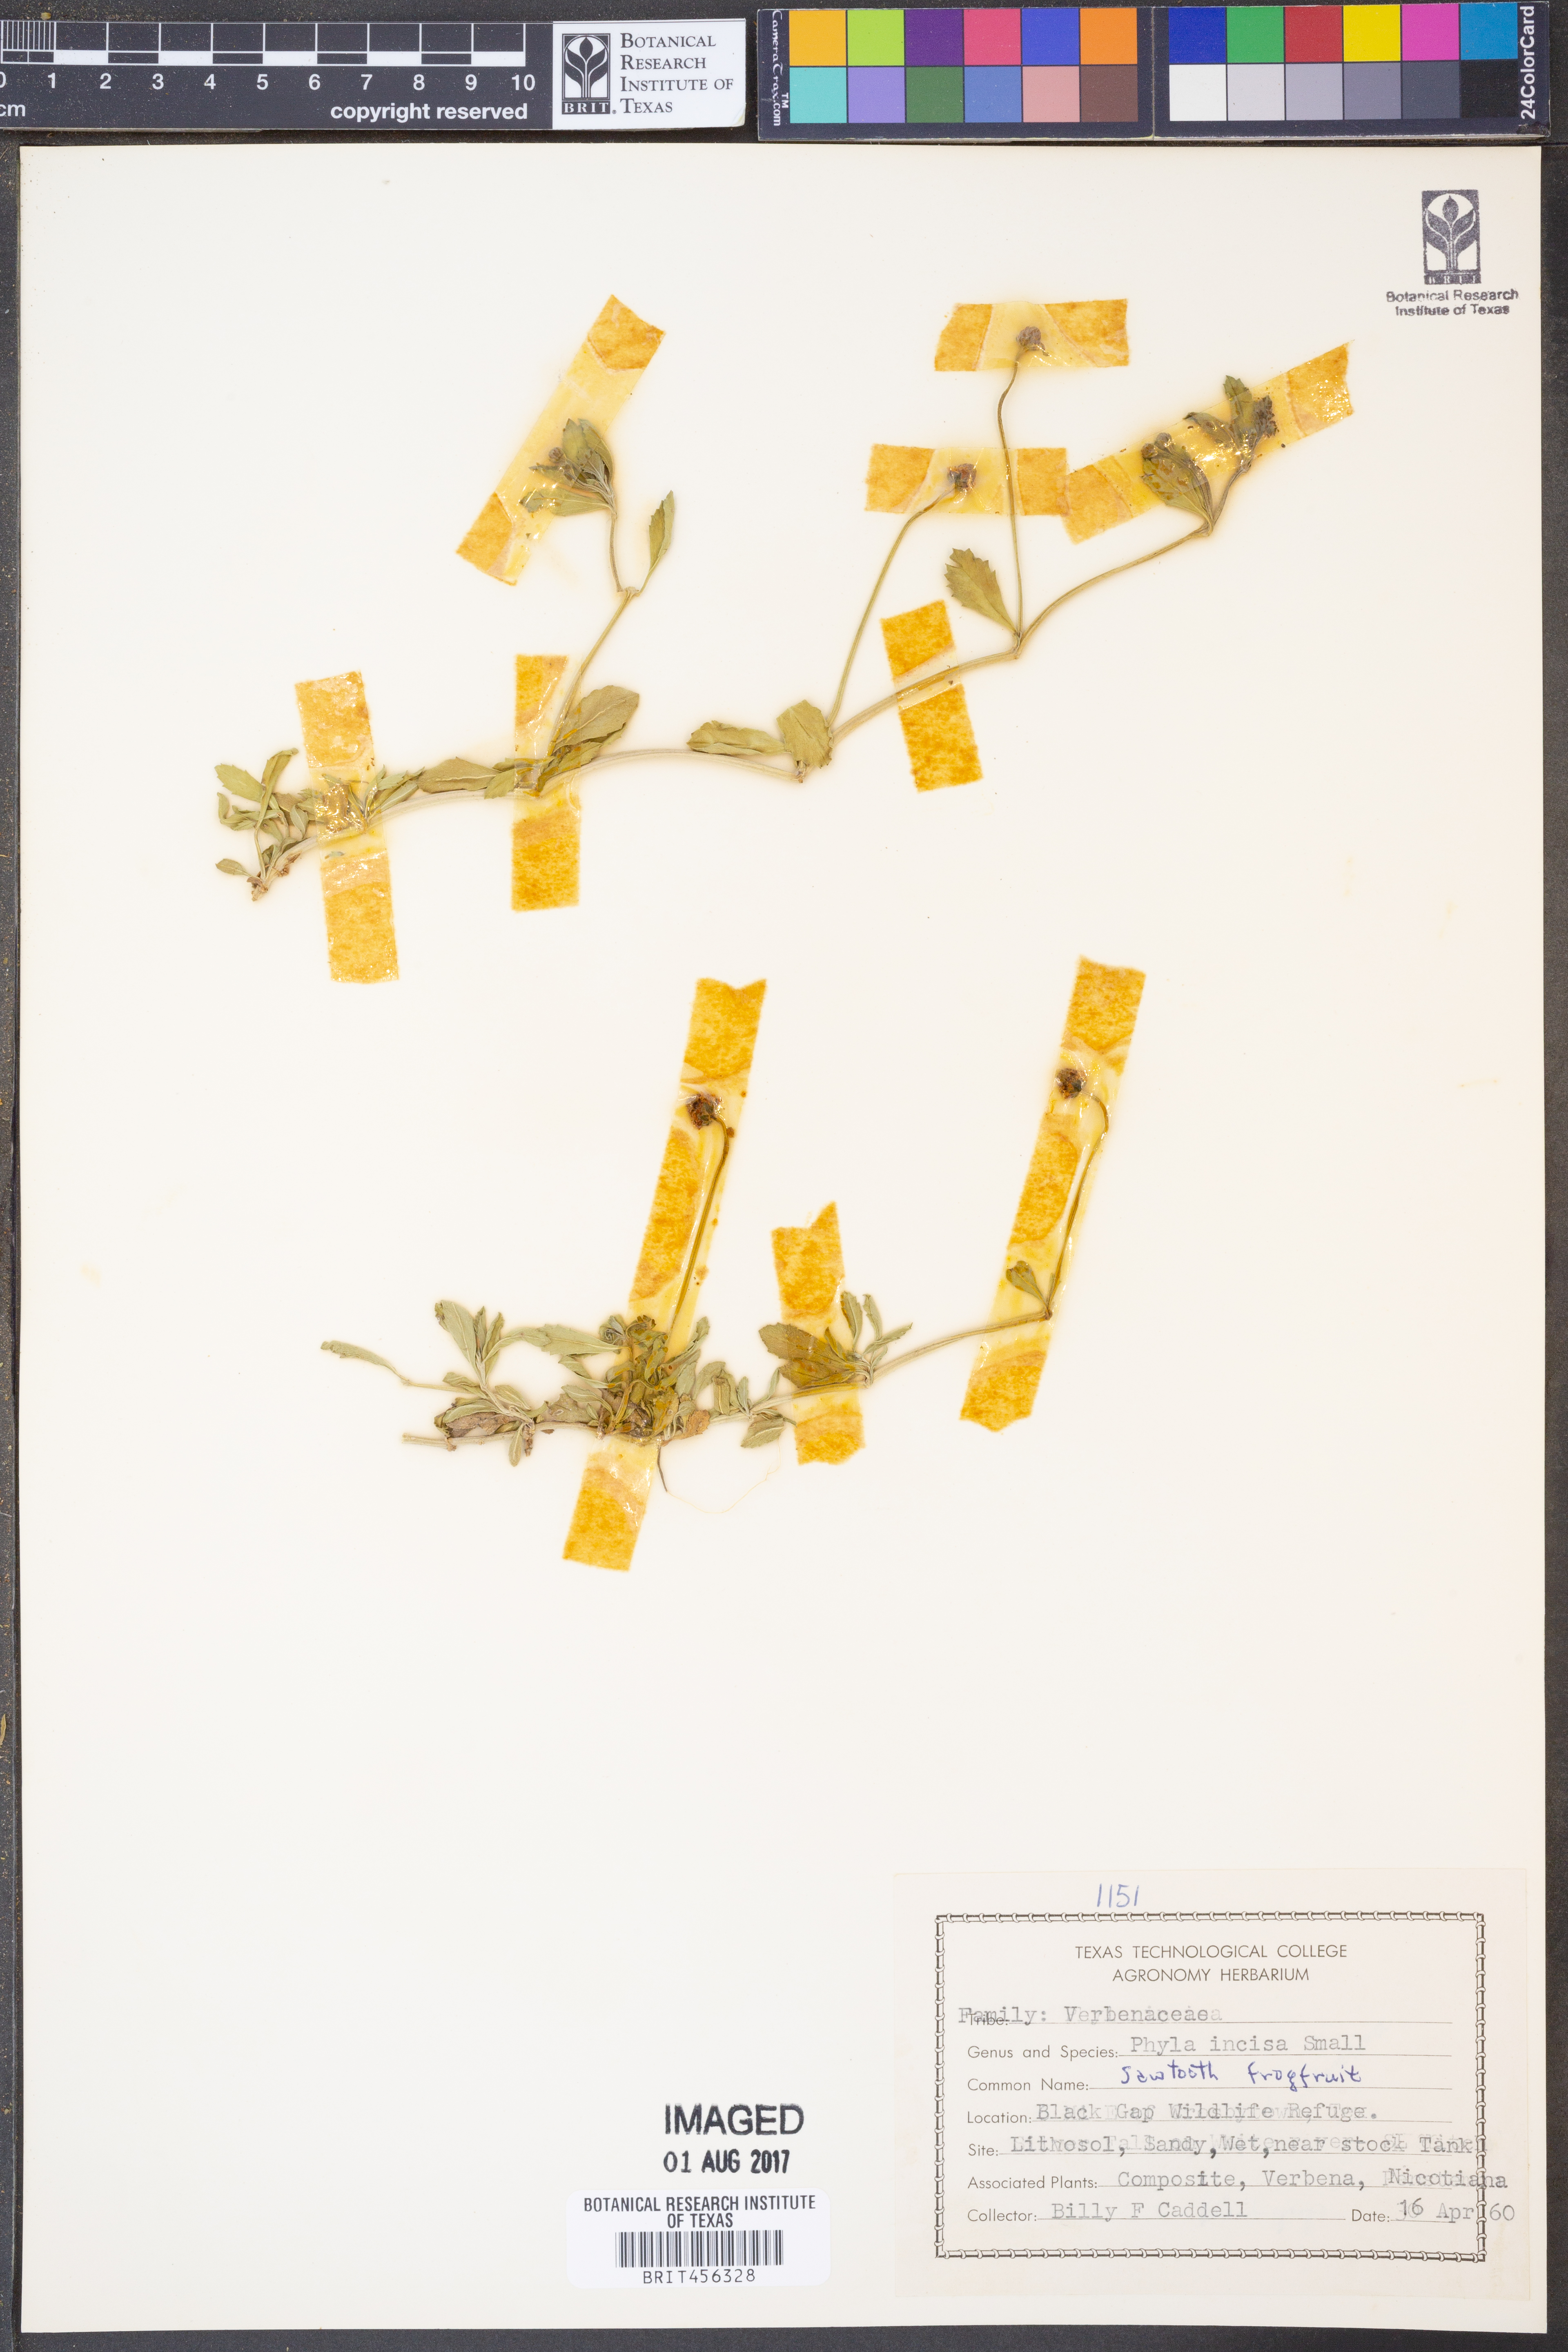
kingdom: Plantae
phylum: Tracheophyta
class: Magnoliopsida
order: Lamiales
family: Verbenaceae
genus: Phyla
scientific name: Phyla nodiflora
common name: Frogfruit
